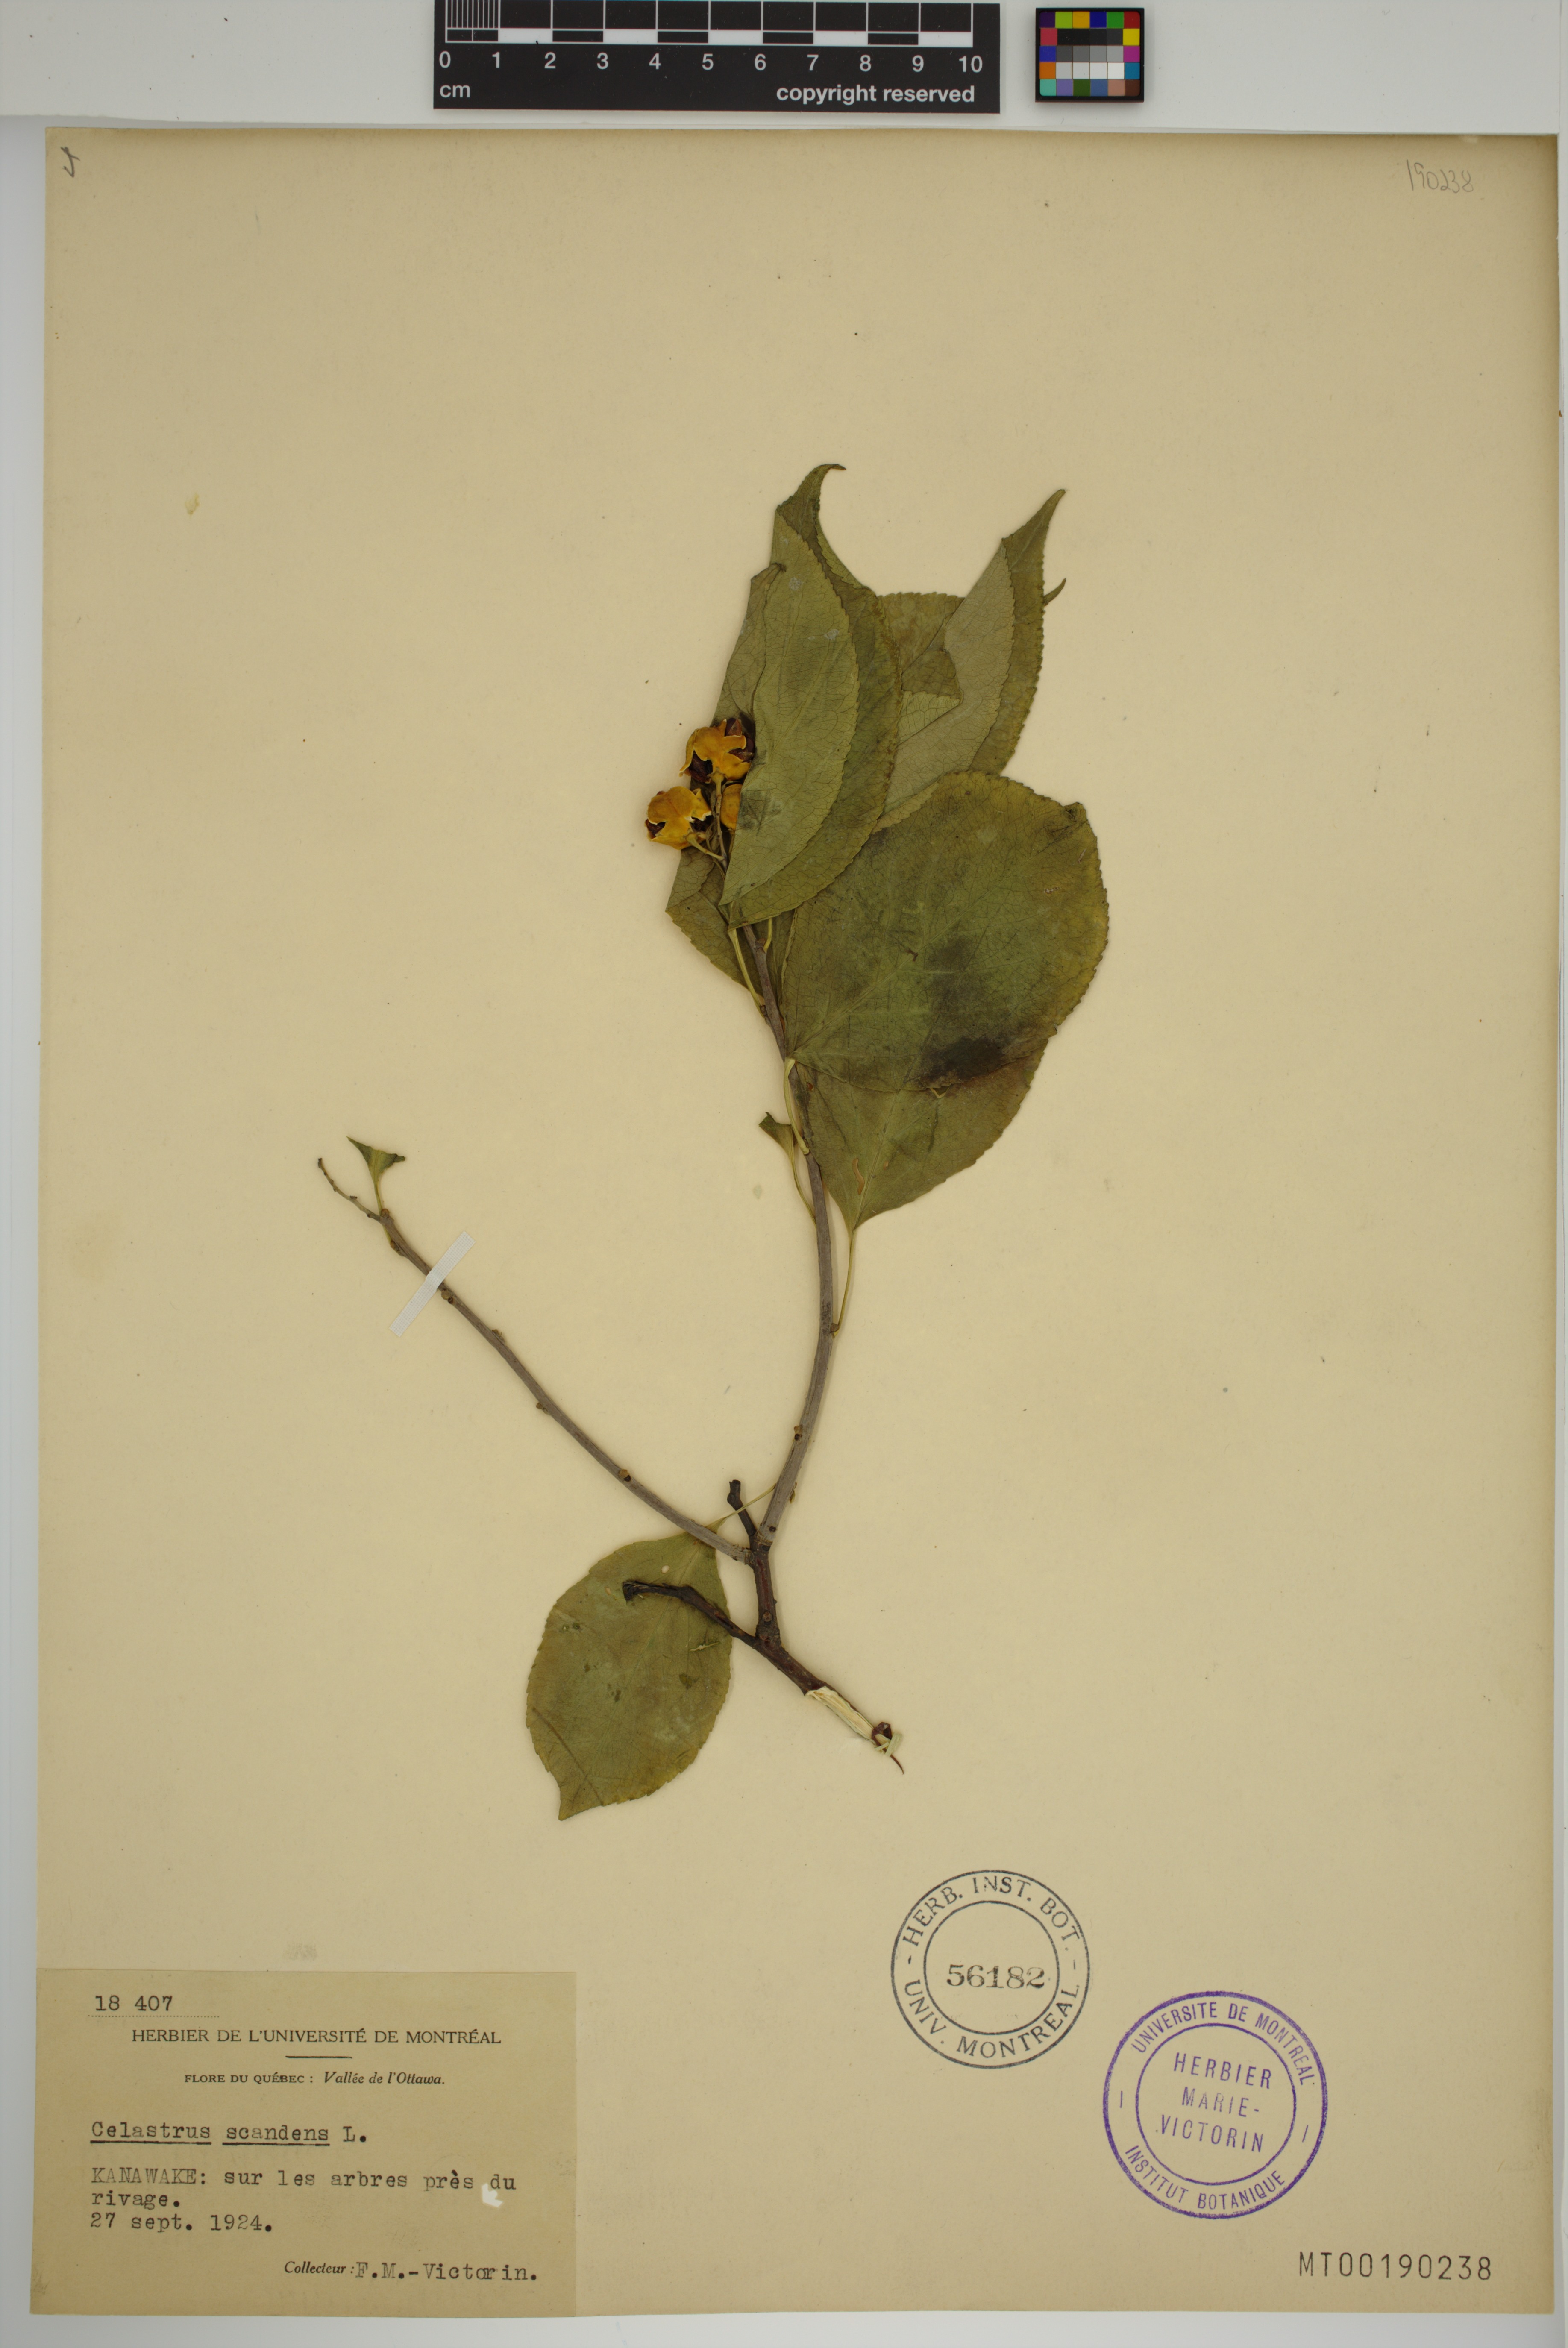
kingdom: Plantae
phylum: Tracheophyta
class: Magnoliopsida
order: Celastrales
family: Celastraceae
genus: Celastrus
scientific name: Celastrus scandens
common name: American bittersweet
